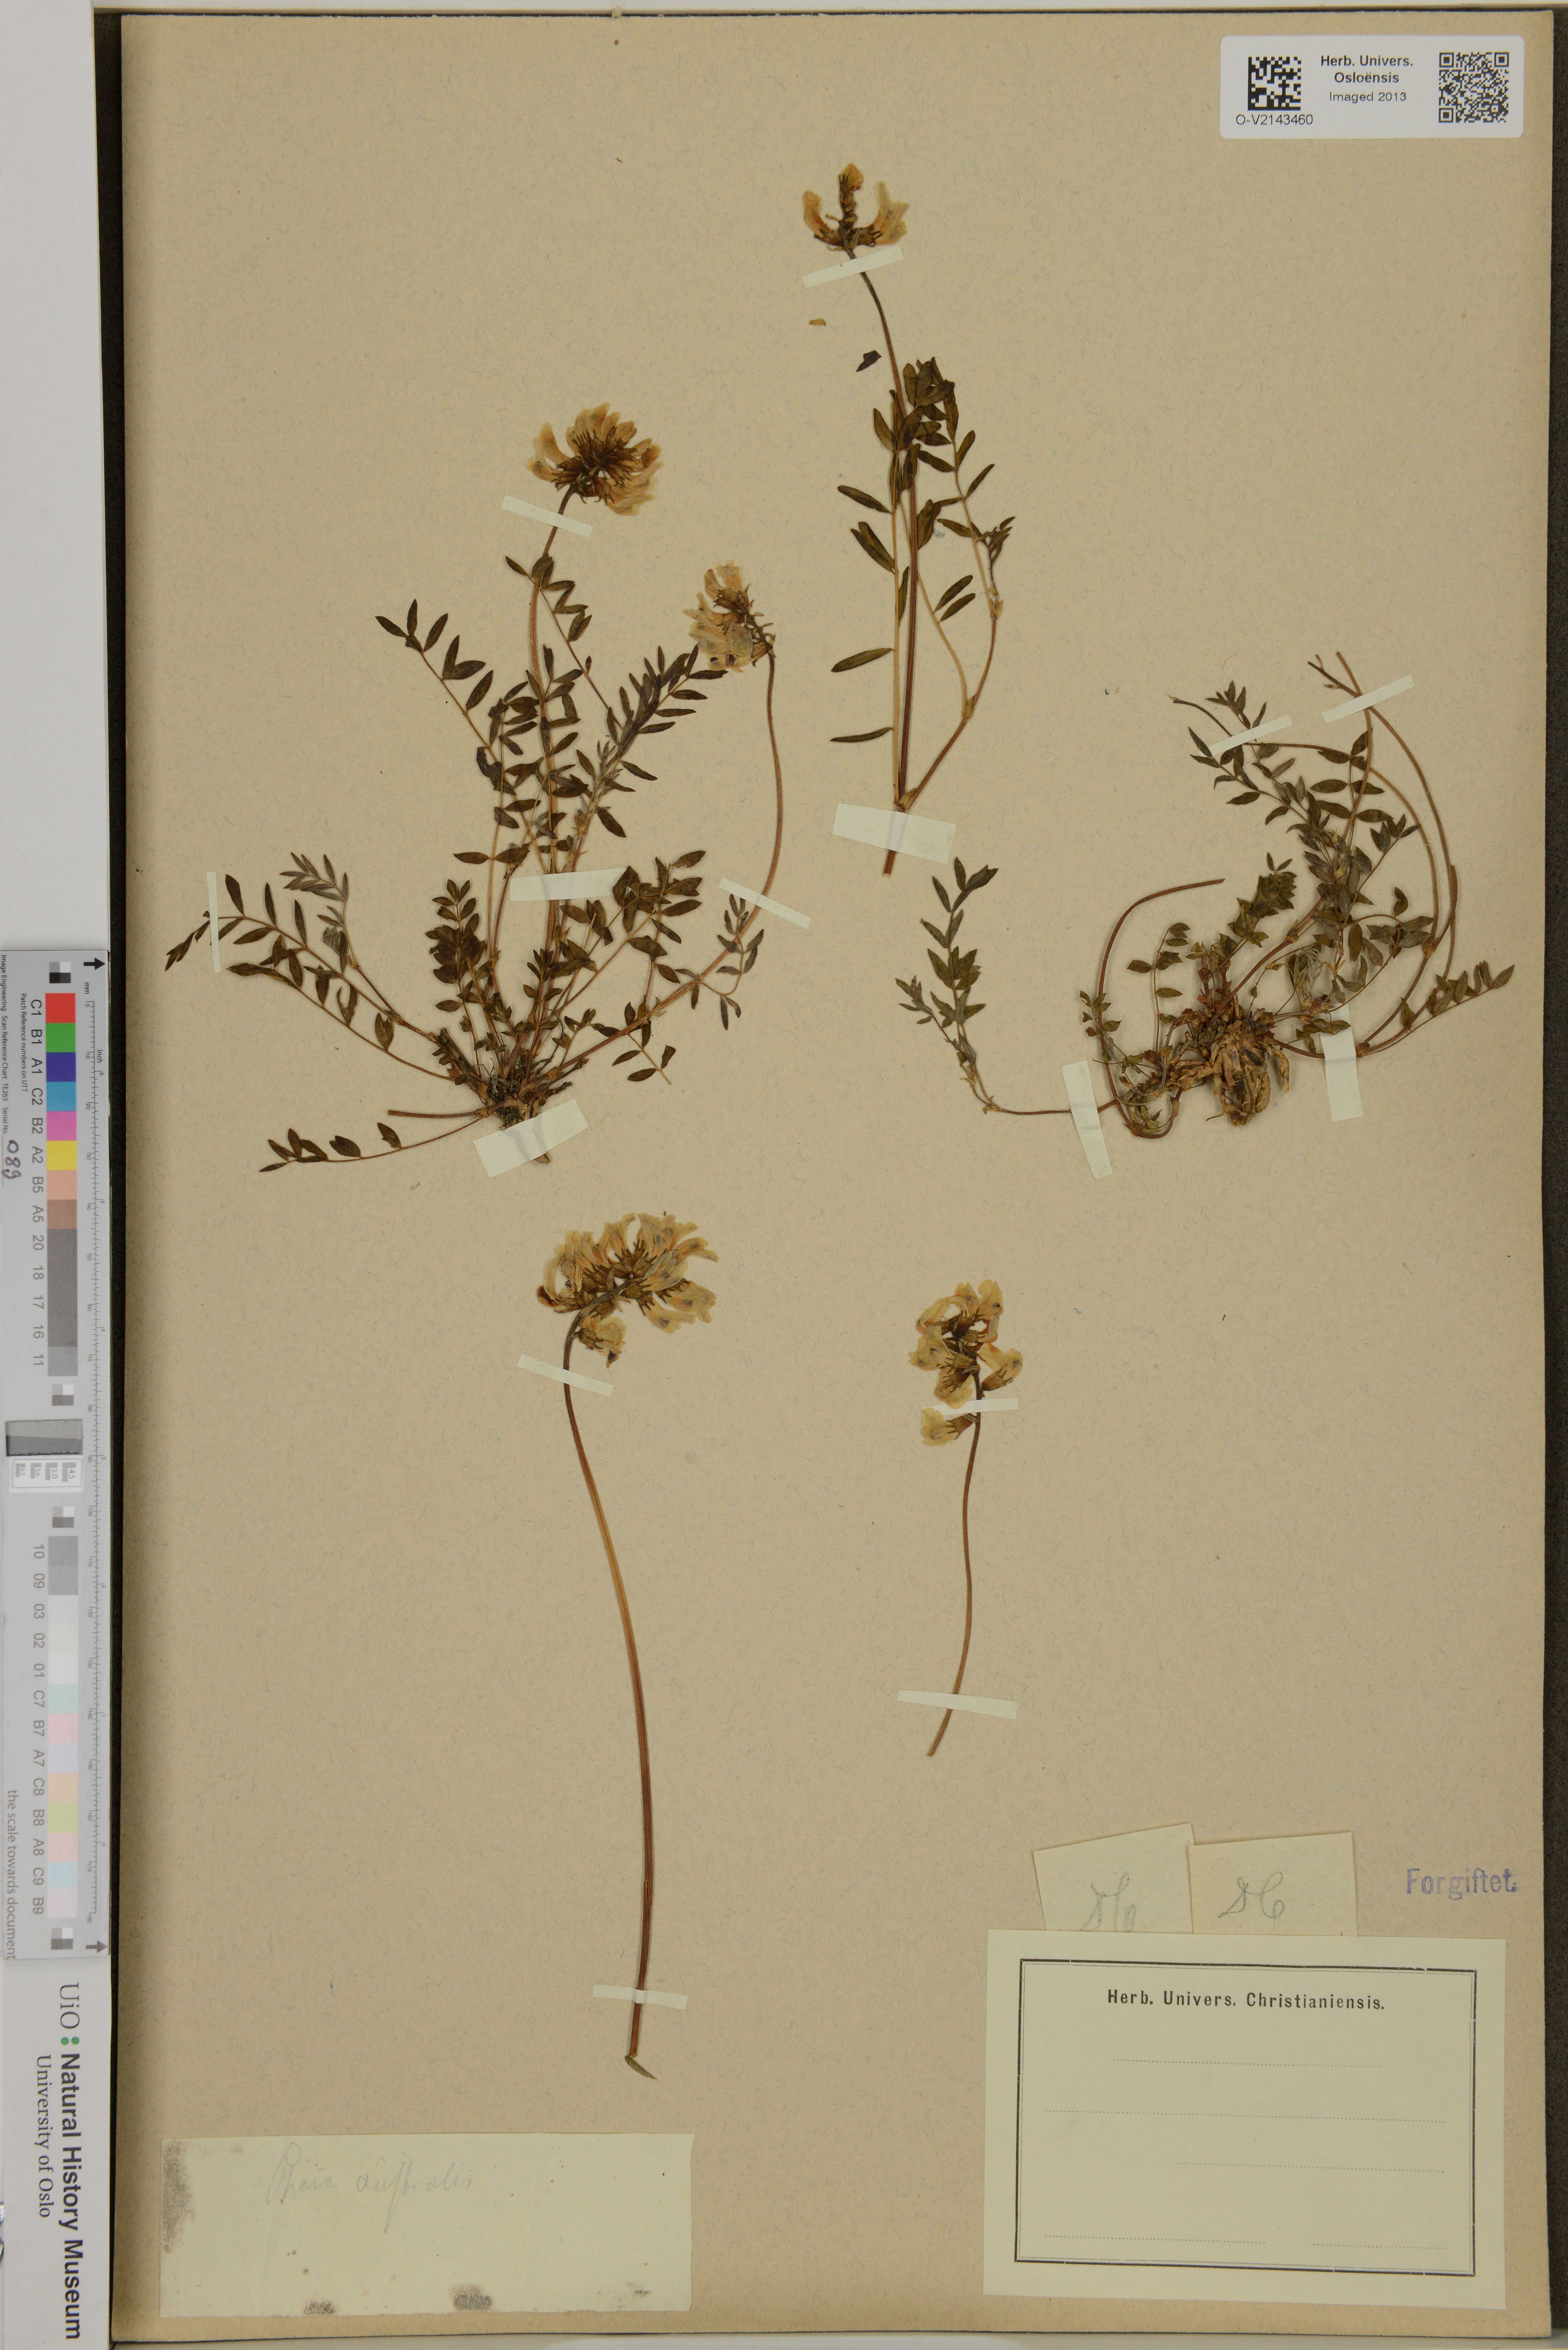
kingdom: Plantae
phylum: Tracheophyta
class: Magnoliopsida
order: Fabales
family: Fabaceae
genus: Astragalus
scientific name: Astragalus australis
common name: Indian milk-vetch
